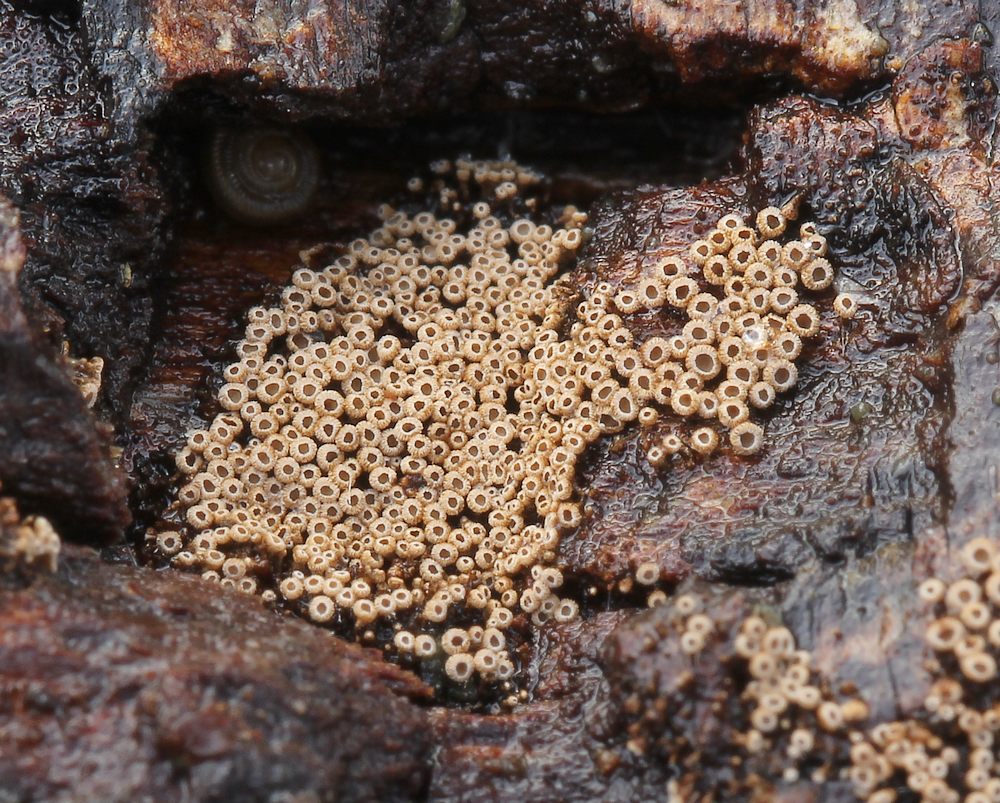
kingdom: Fungi
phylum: Basidiomycota
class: Agaricomycetes
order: Agaricales
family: Niaceae
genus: Merismodes
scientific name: Merismodes anomala
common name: almindelig læderskål
